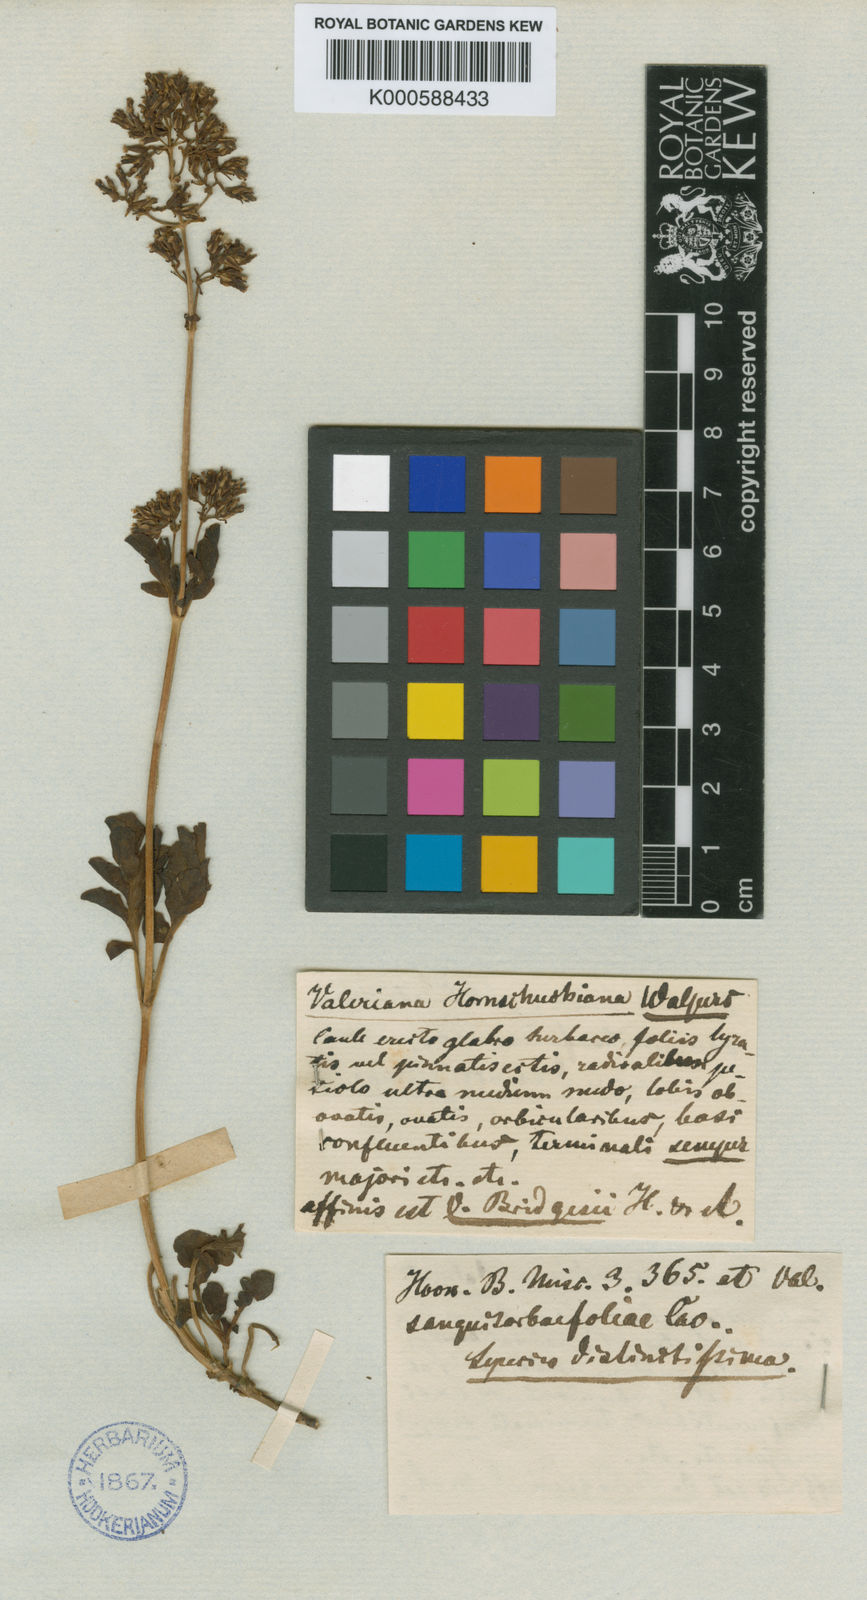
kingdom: Plantae
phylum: Tracheophyta
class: Magnoliopsida
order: Dipsacales
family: Caprifoliaceae
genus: Valeriana
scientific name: Valeriana hornschuchiana
